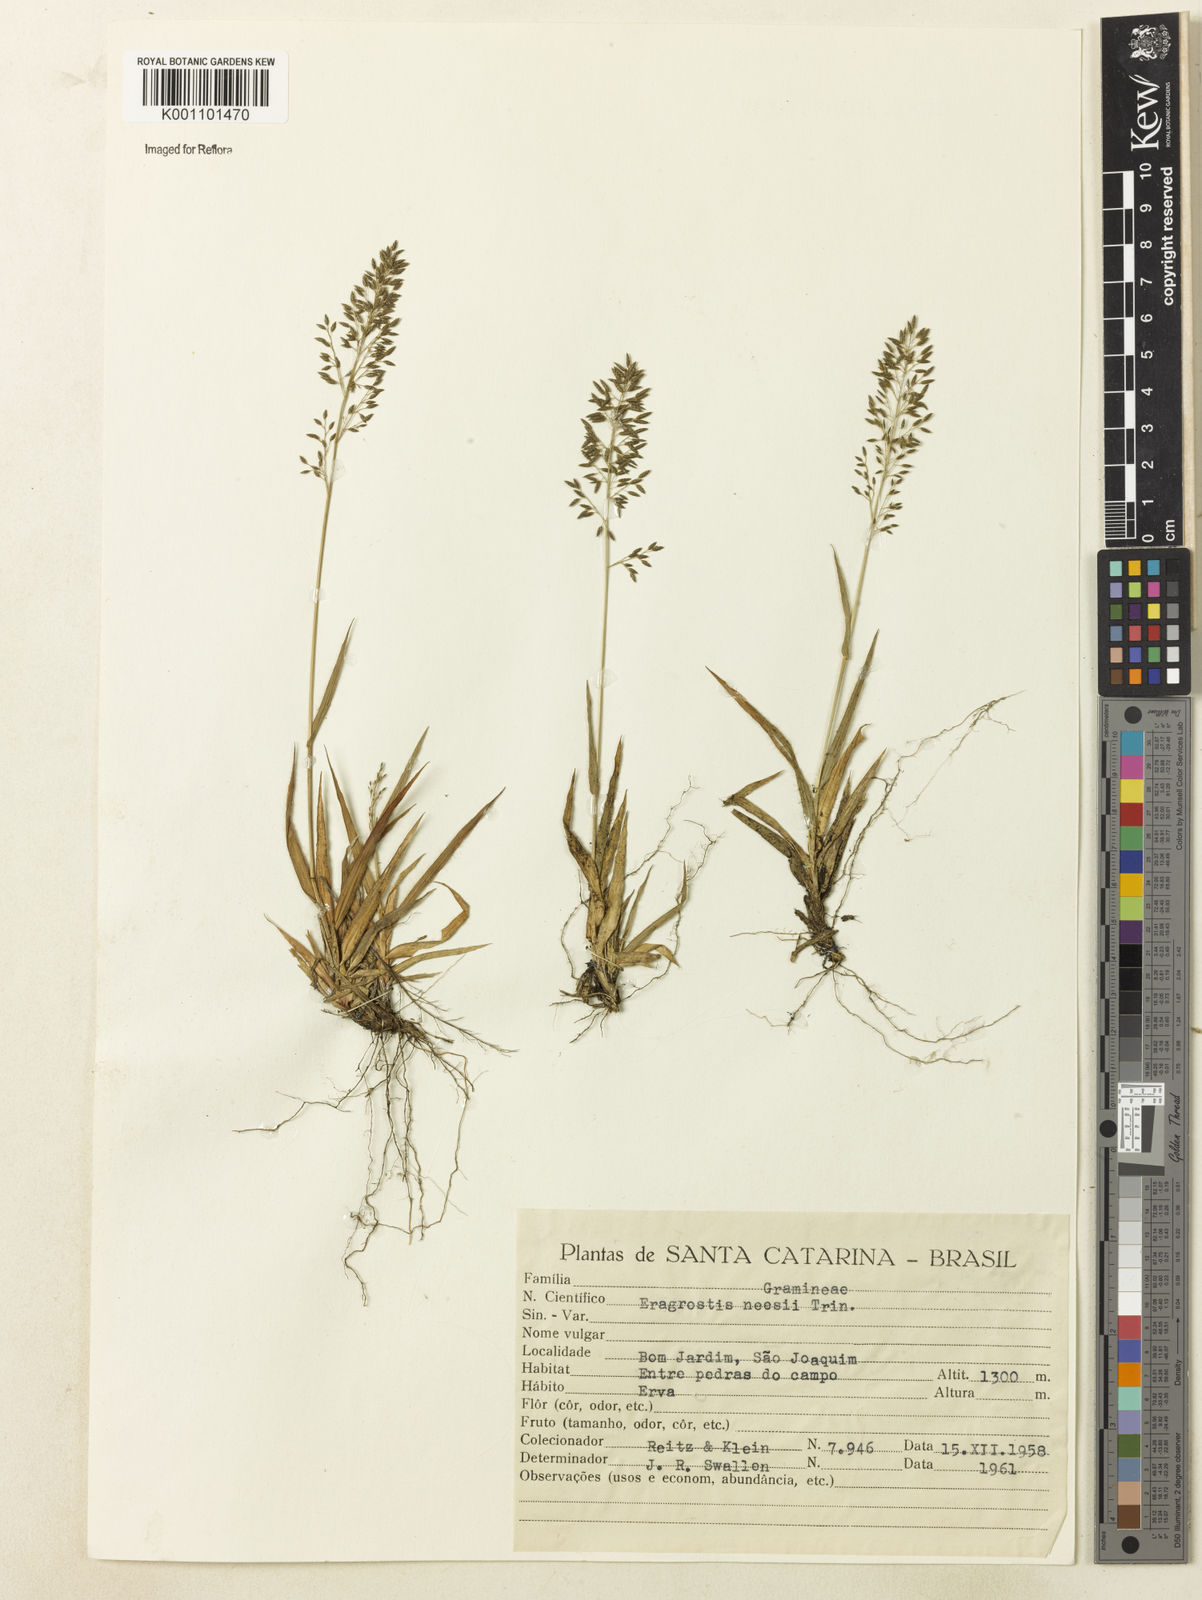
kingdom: Plantae
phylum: Tracheophyta
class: Liliopsida
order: Poales
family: Poaceae
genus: Eragrostis
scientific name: Eragrostis neesii
